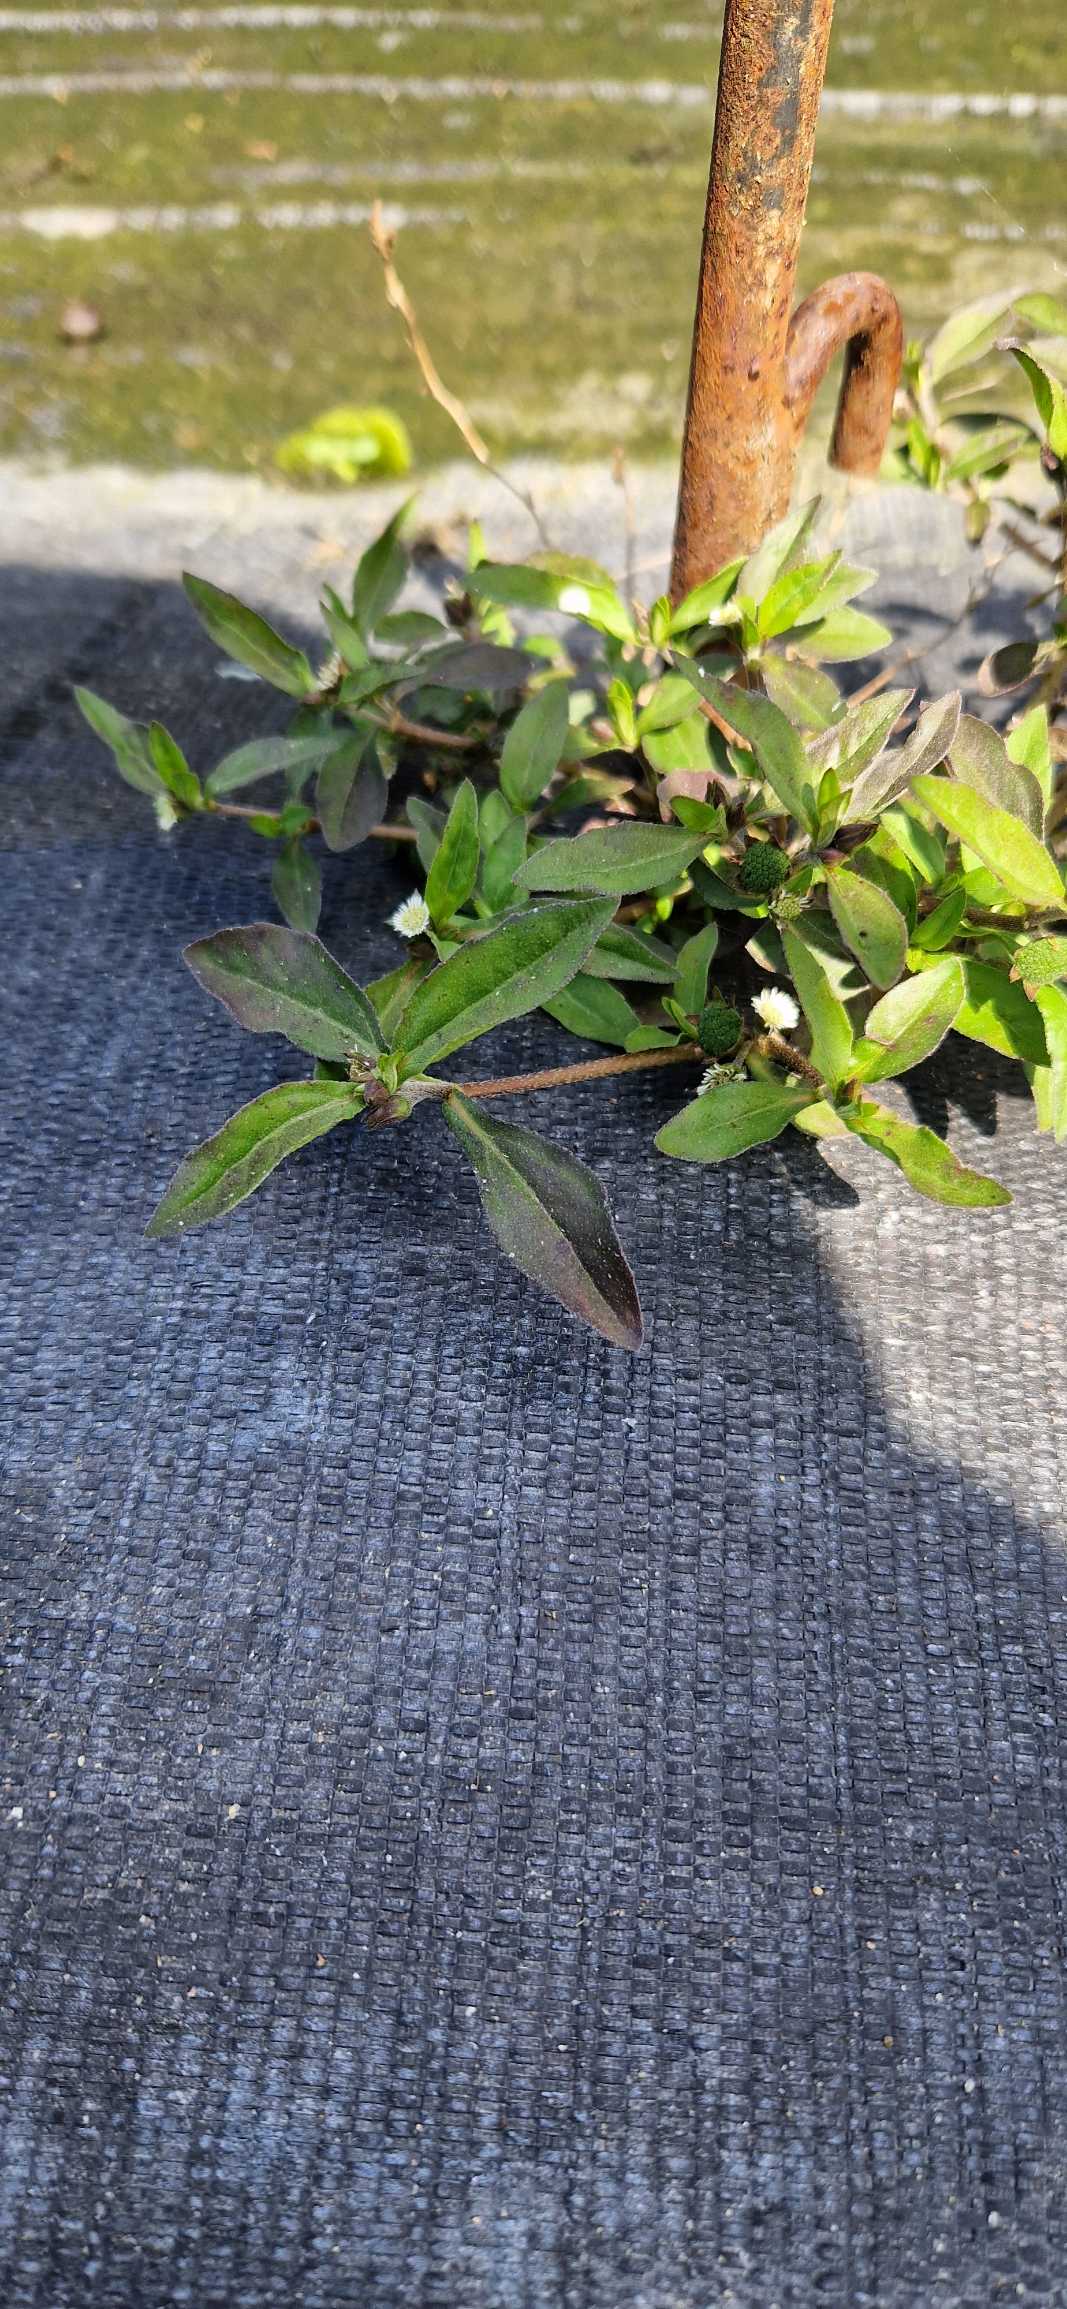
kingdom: Plantae
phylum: Tracheophyta
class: Magnoliopsida
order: Asterales
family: Asteraceae
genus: Eclipta
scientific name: Eclipta prostrata
